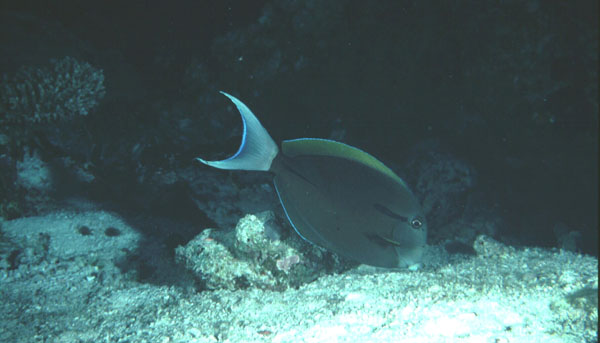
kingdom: Animalia
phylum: Chordata
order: Perciformes
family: Acanthuridae
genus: Acanthurus
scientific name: Acanthurus nigricauda
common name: Black-barred surgeonfish
